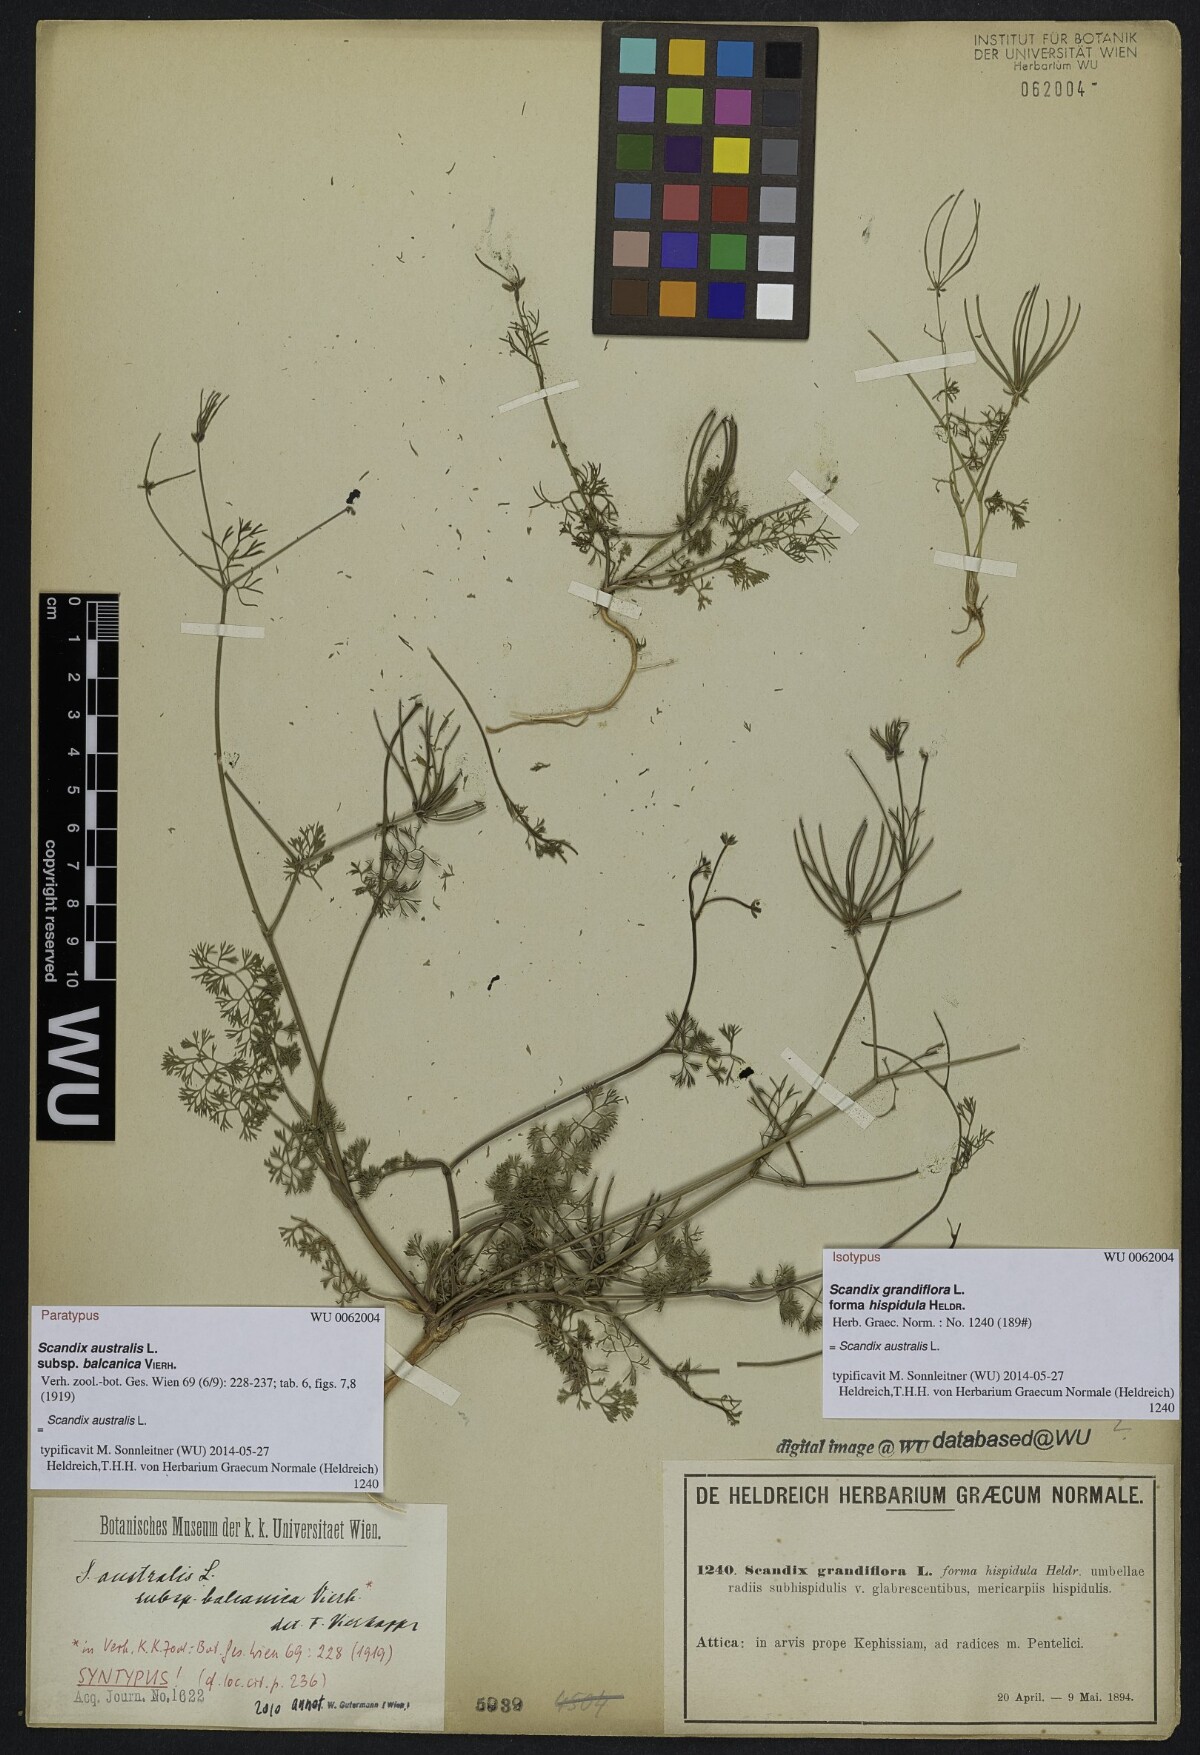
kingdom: Plantae
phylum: Tracheophyta
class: Magnoliopsida
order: Apiales
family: Apiaceae
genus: Scandix
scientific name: Scandix australis
